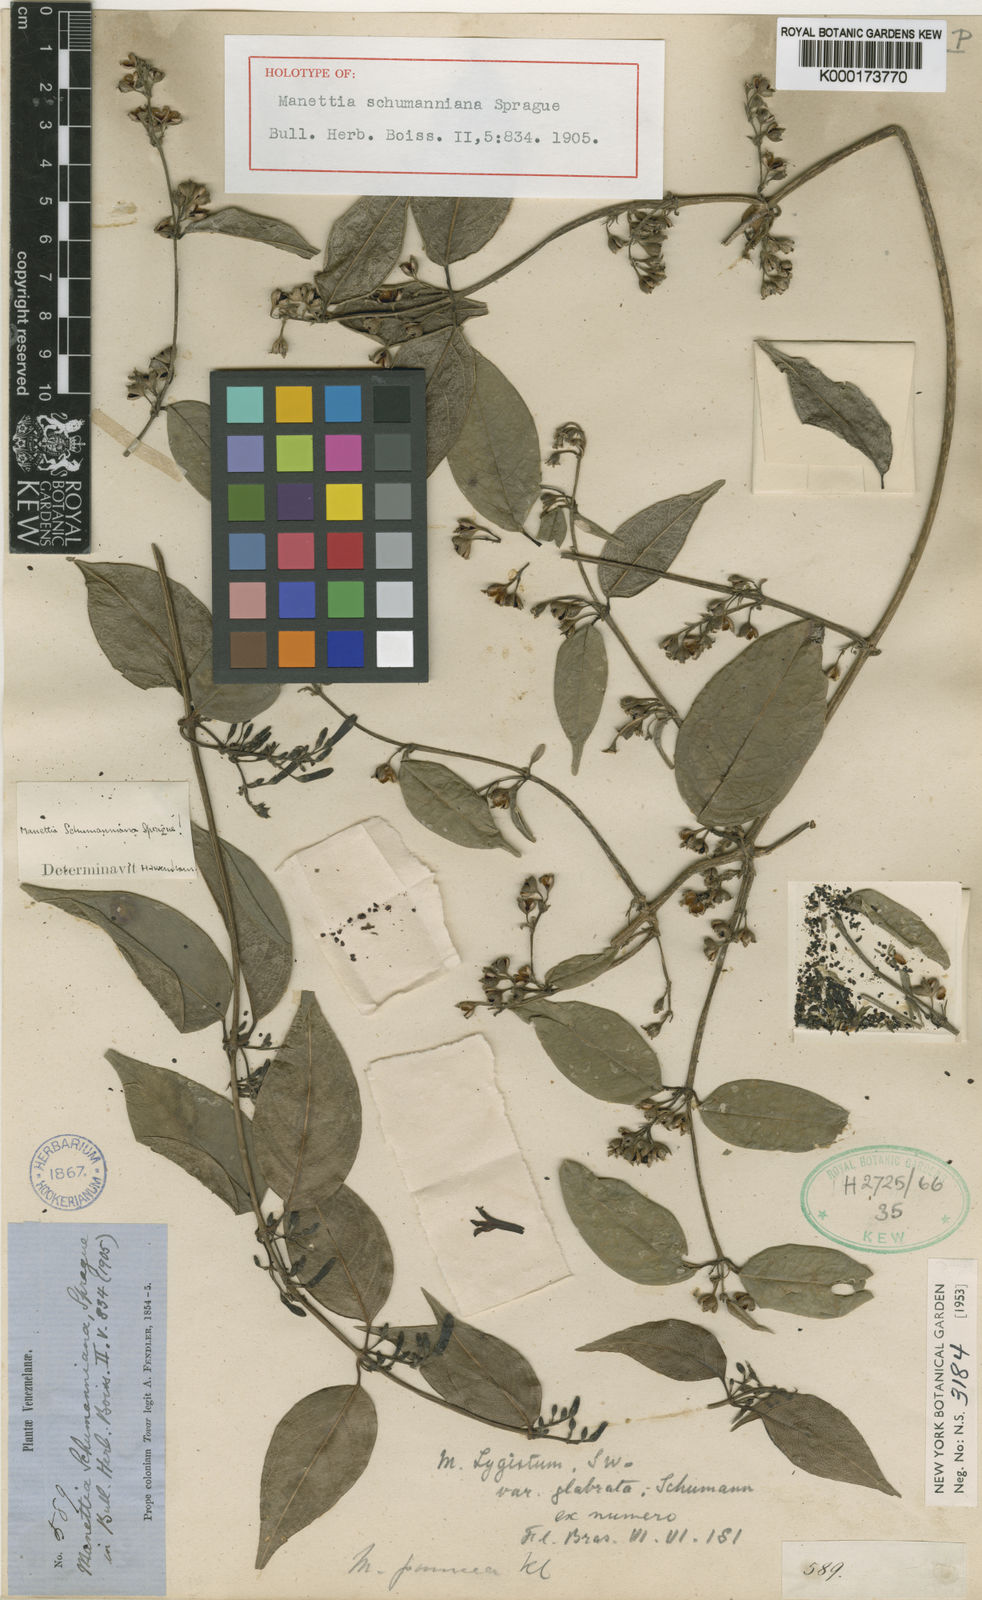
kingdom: Plantae
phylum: Tracheophyta
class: Magnoliopsida
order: Gentianales
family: Rubiaceae
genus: Manettia
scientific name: Manettia schumanniana
